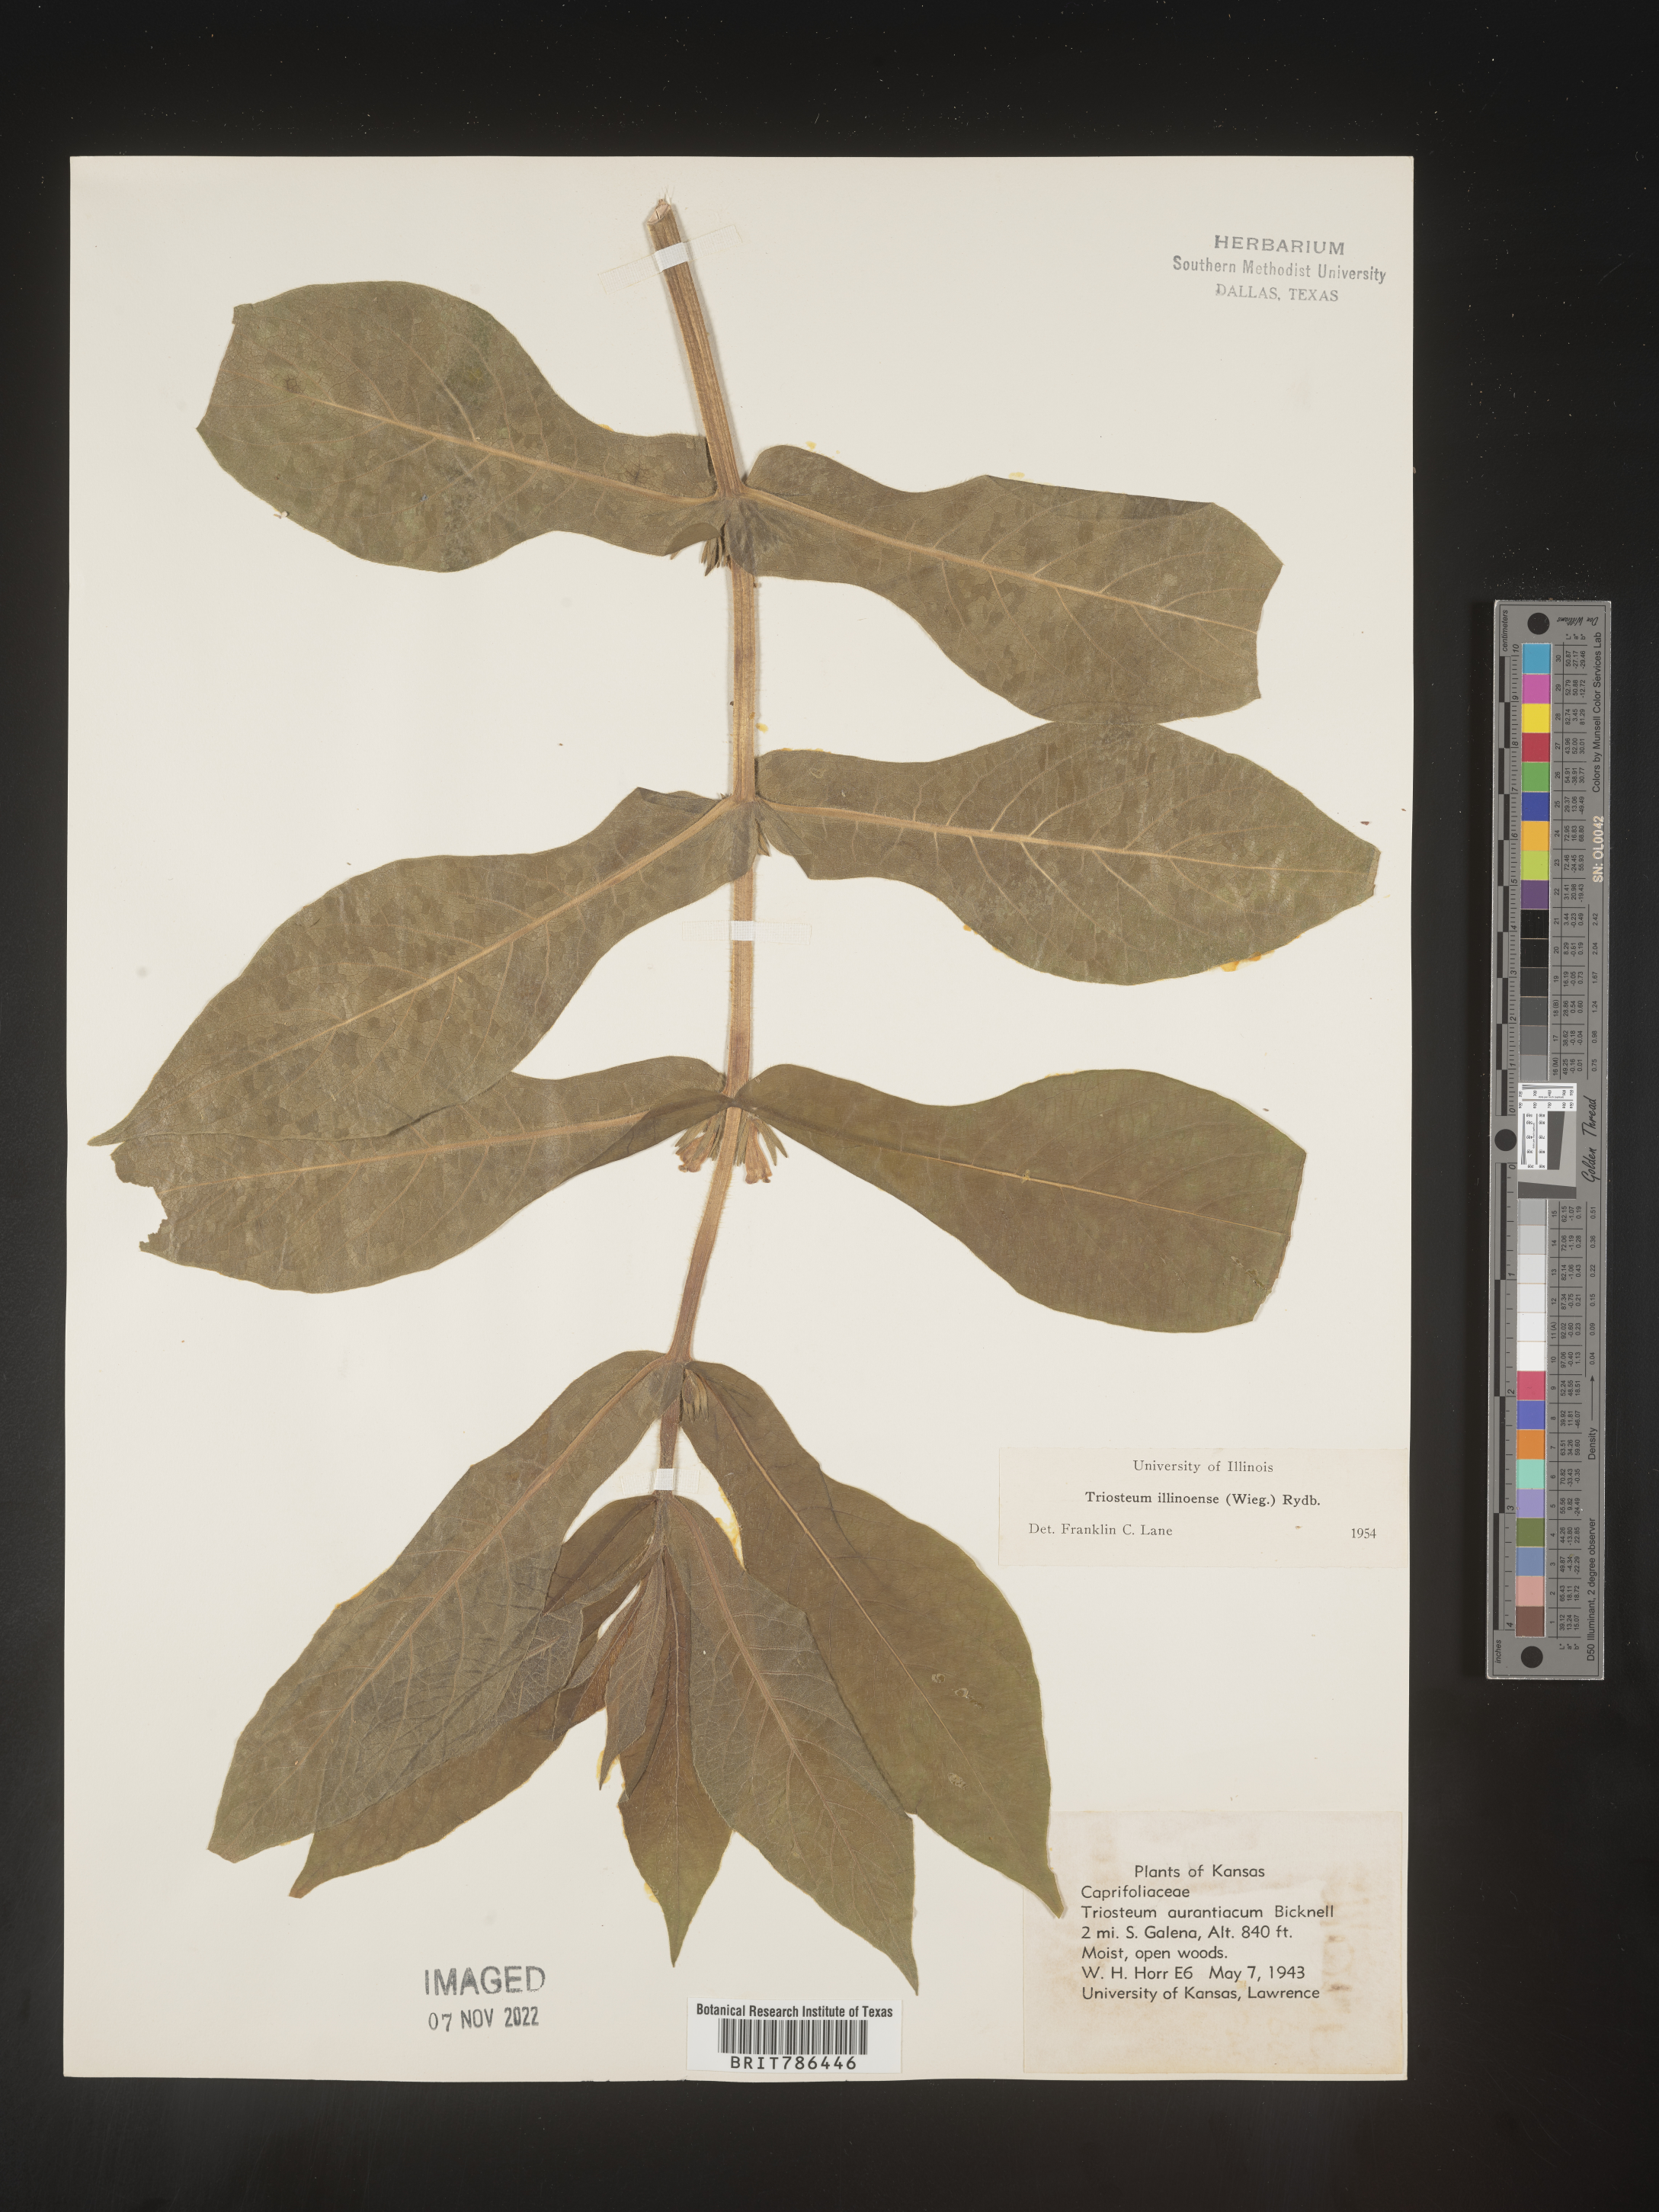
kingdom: Plantae
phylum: Tracheophyta
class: Magnoliopsida
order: Dipsacales
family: Caprifoliaceae
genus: Triosteum
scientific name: Triosteum aurantiacum
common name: Coffee tinker's-weed
